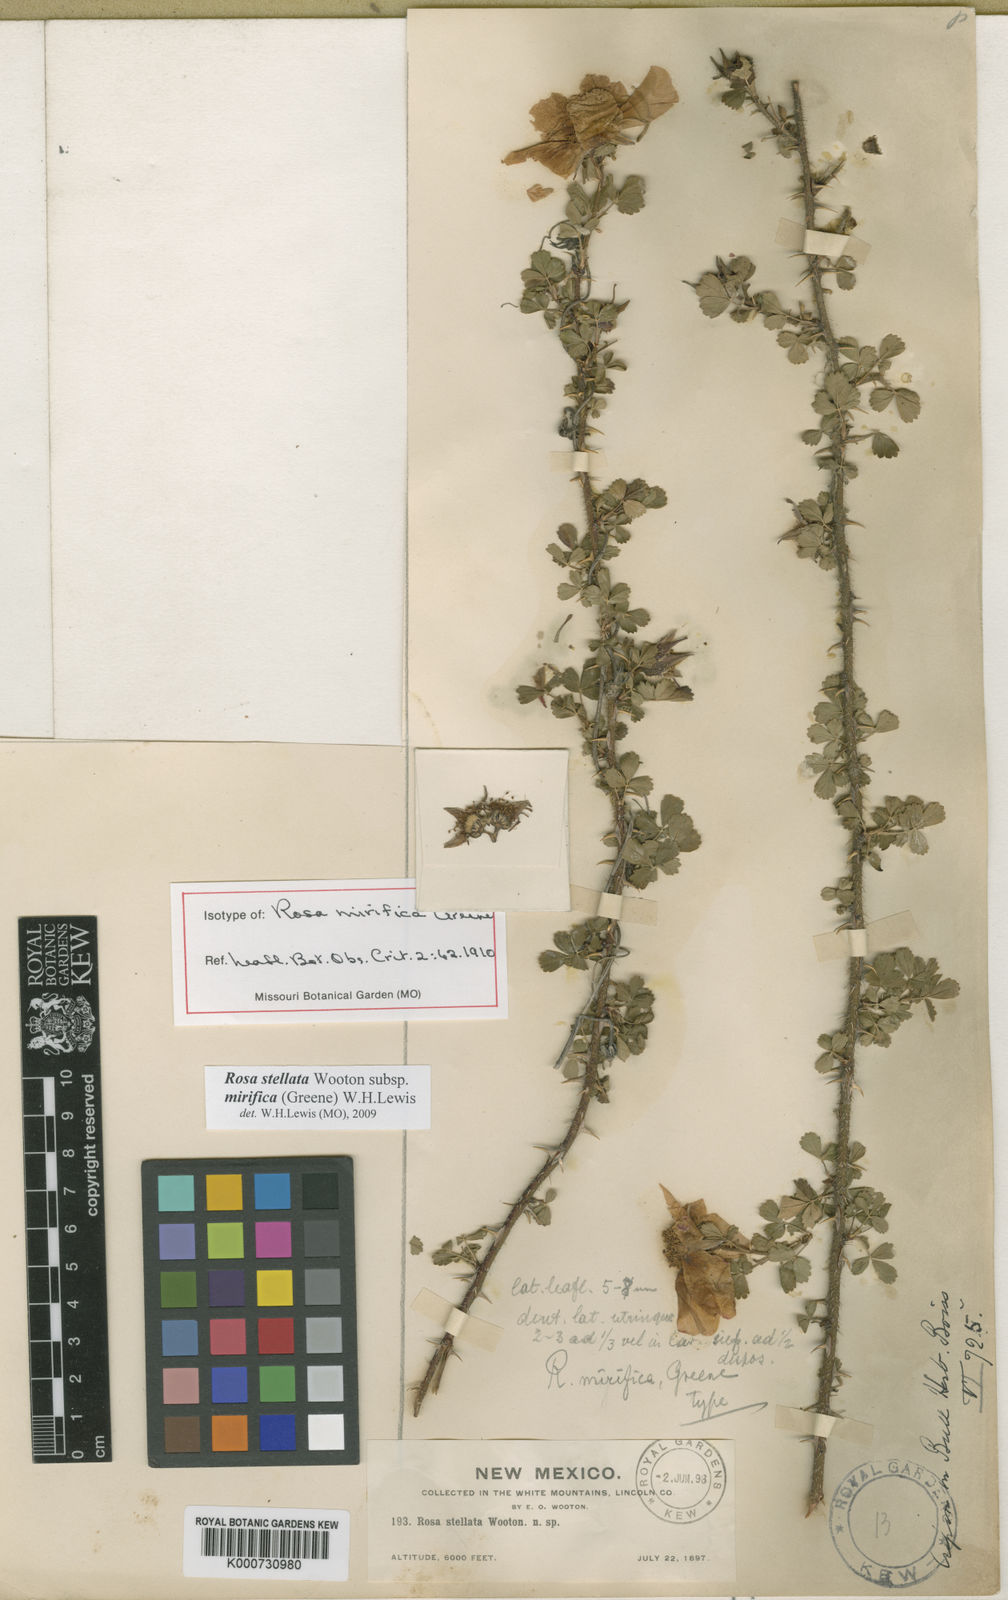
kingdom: Plantae
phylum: Tracheophyta
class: Magnoliopsida
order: Rosales
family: Rosaceae
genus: Rosa
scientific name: Rosa stellata
